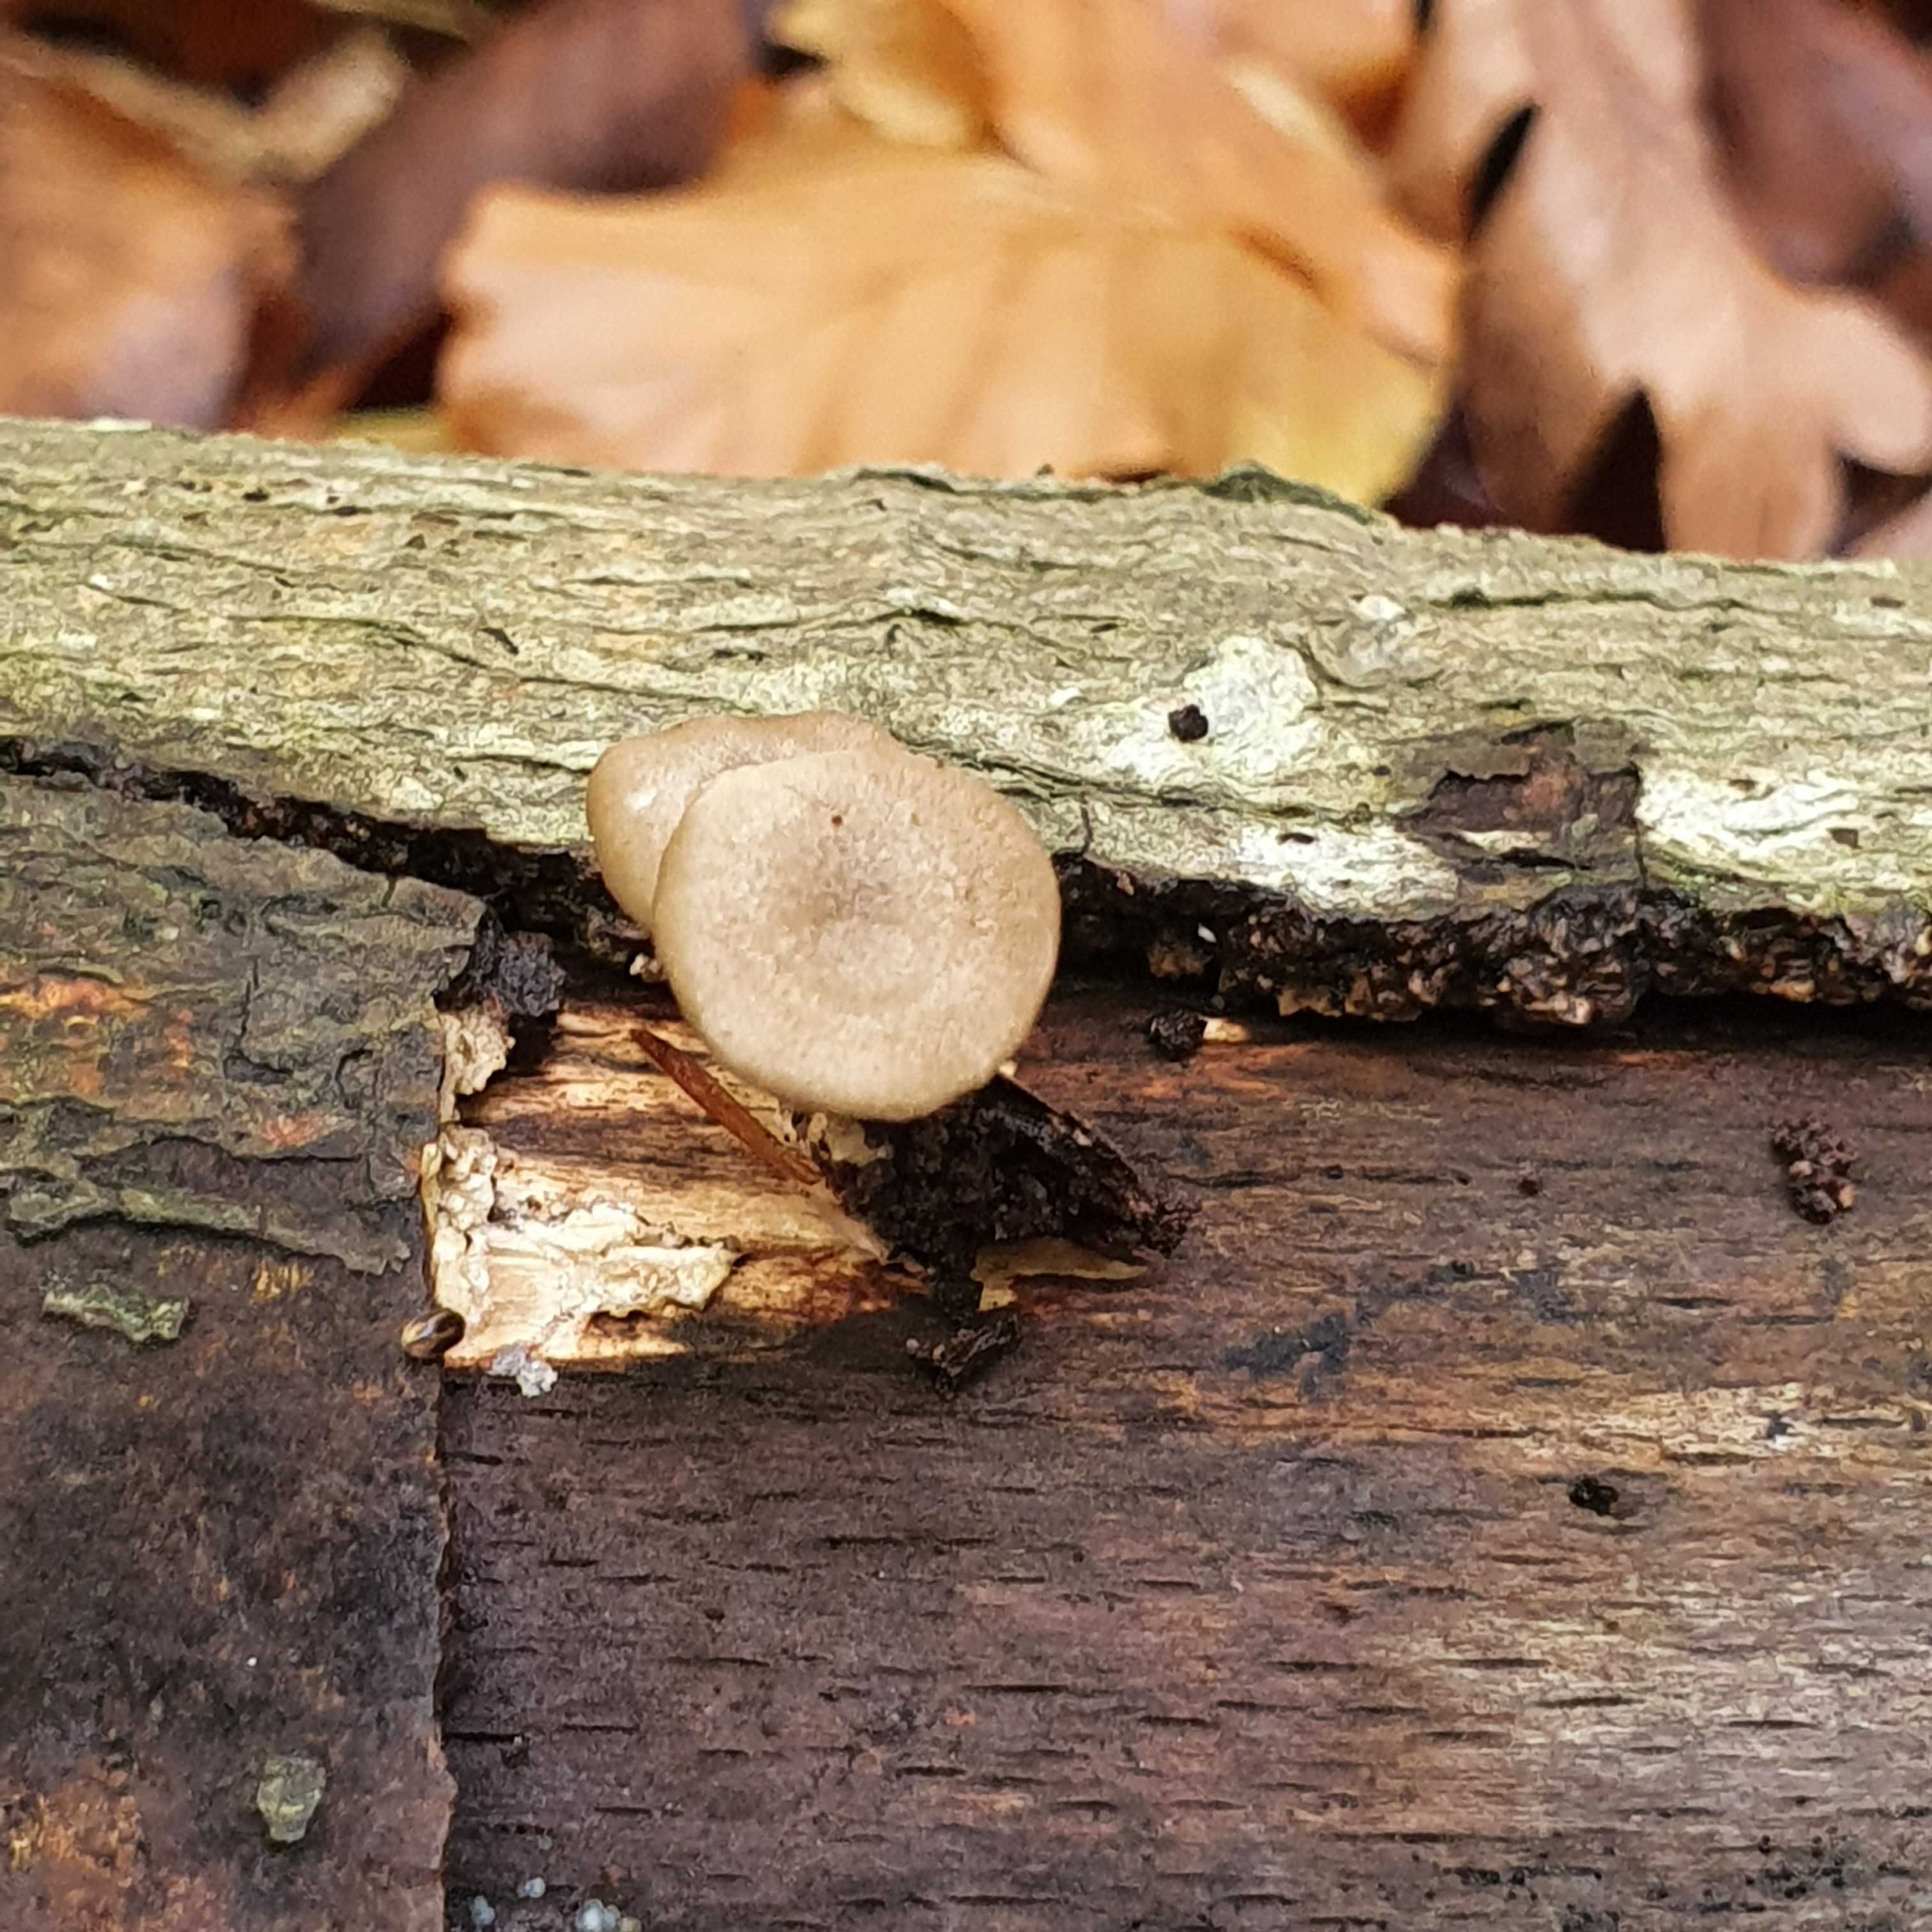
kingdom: Fungi
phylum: Basidiomycota
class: Agaricomycetes
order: Polyporales
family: Polyporaceae
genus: Lentinus
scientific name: Lentinus brumalis
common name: vinter-stilkporesvamp
